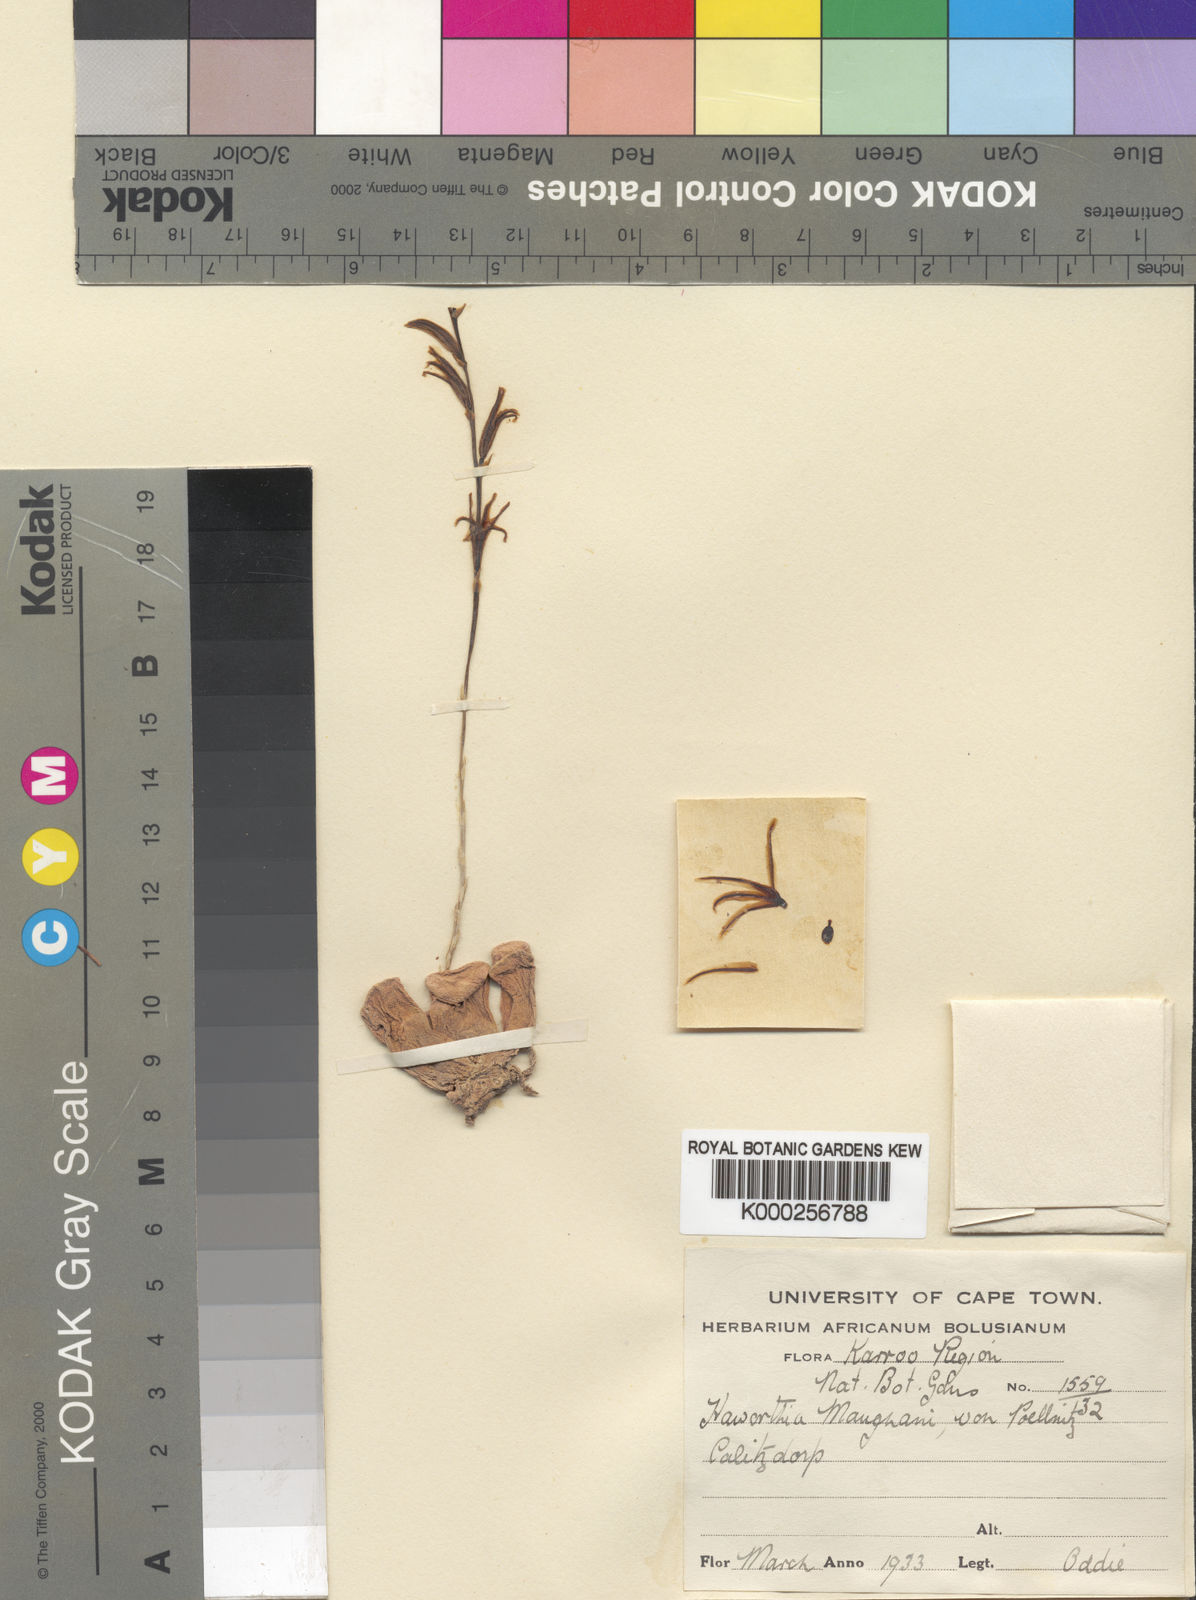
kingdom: Plantae
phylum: Tracheophyta
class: Liliopsida
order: Asparagales
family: Asphodelaceae
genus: Haworthia
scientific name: Haworthia truncata
